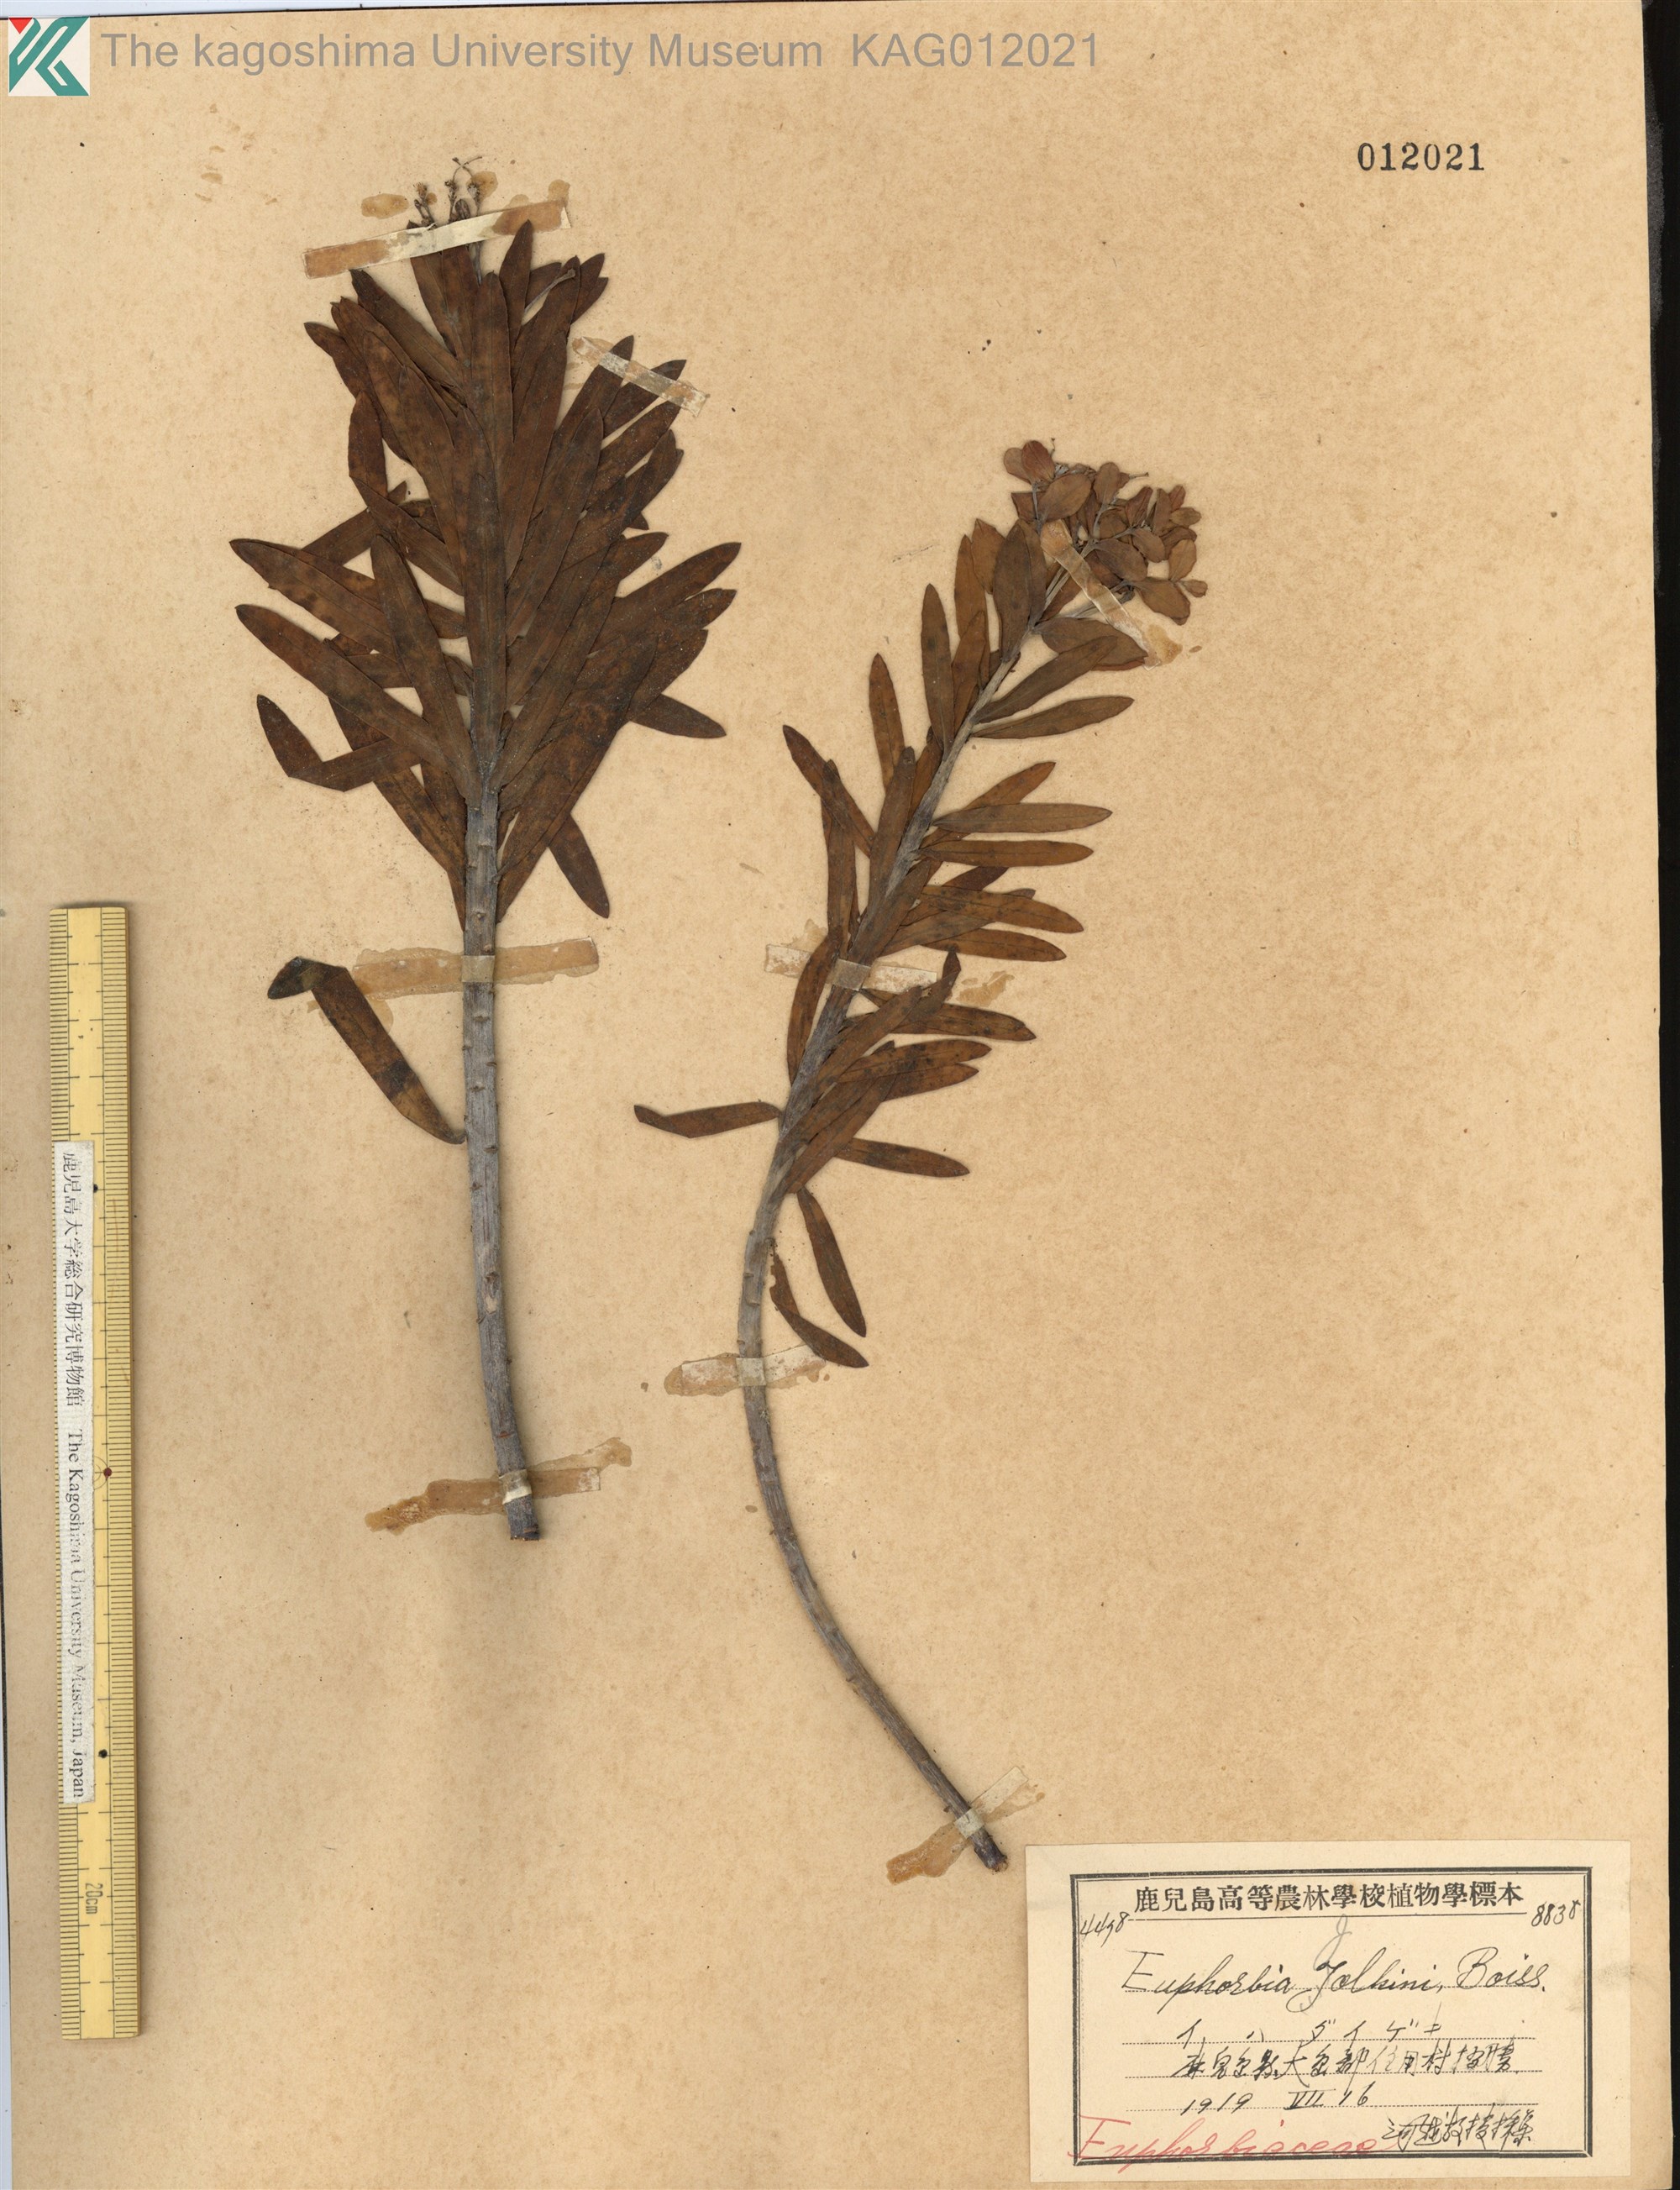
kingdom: Plantae
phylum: Tracheophyta
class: Magnoliopsida
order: Malpighiales
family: Euphorbiaceae
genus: Euphorbia
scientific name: Euphorbia jolkinii
